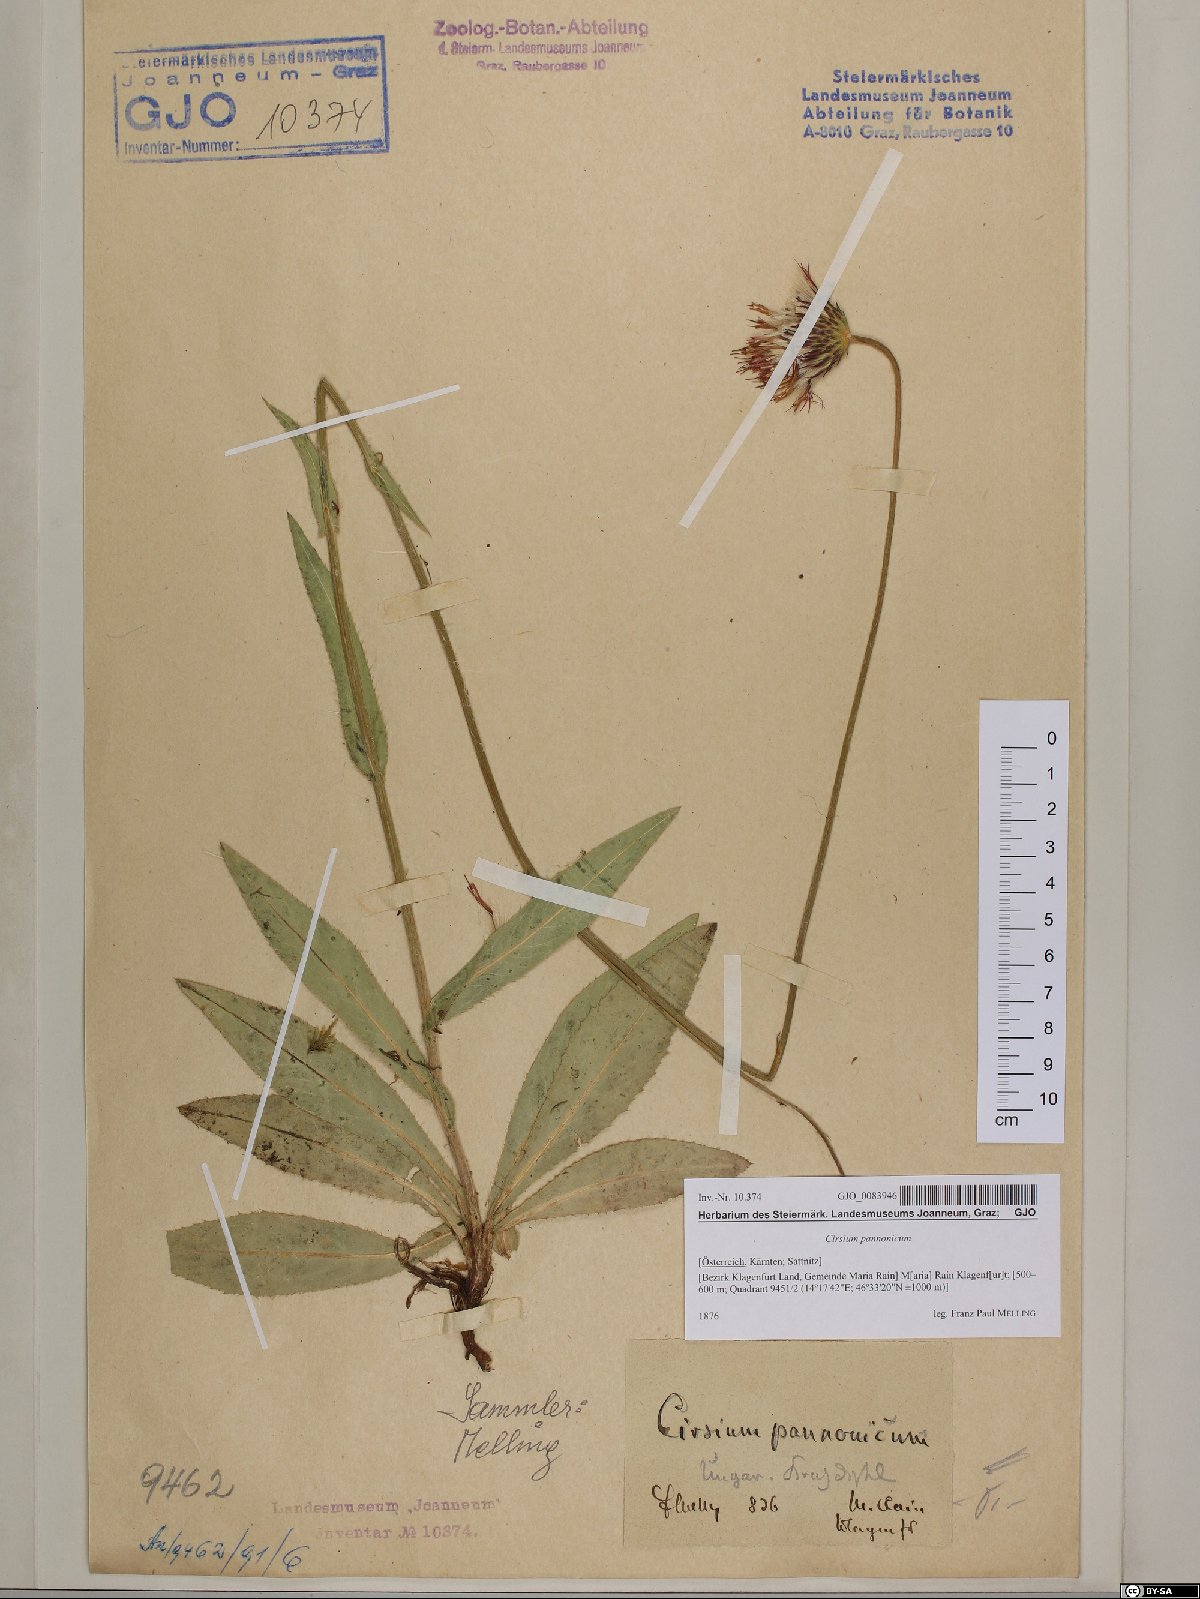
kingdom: Plantae
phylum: Tracheophyta
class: Magnoliopsida
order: Asterales
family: Asteraceae
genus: Cirsium
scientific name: Cirsium pannonicum
